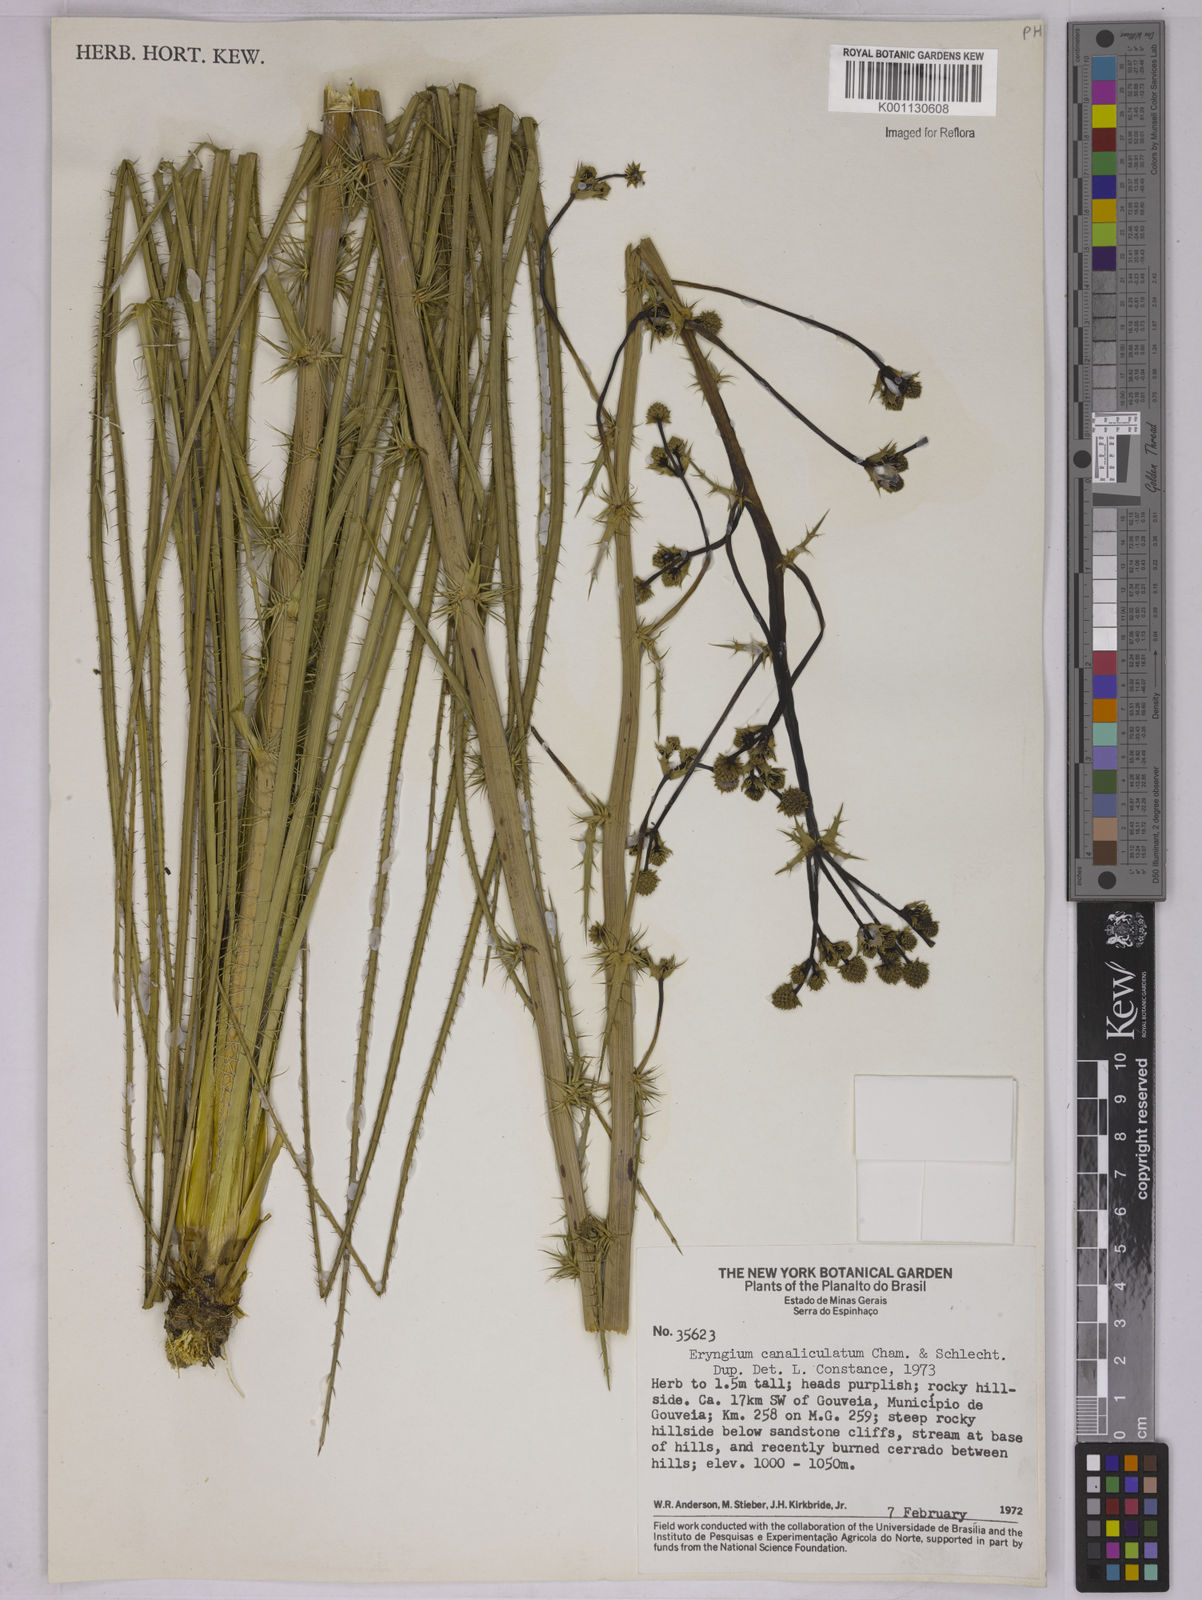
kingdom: Plantae
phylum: Tracheophyta
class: Magnoliopsida
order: Apiales
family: Apiaceae
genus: Eryngium
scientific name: Eryngium canaliculatum
